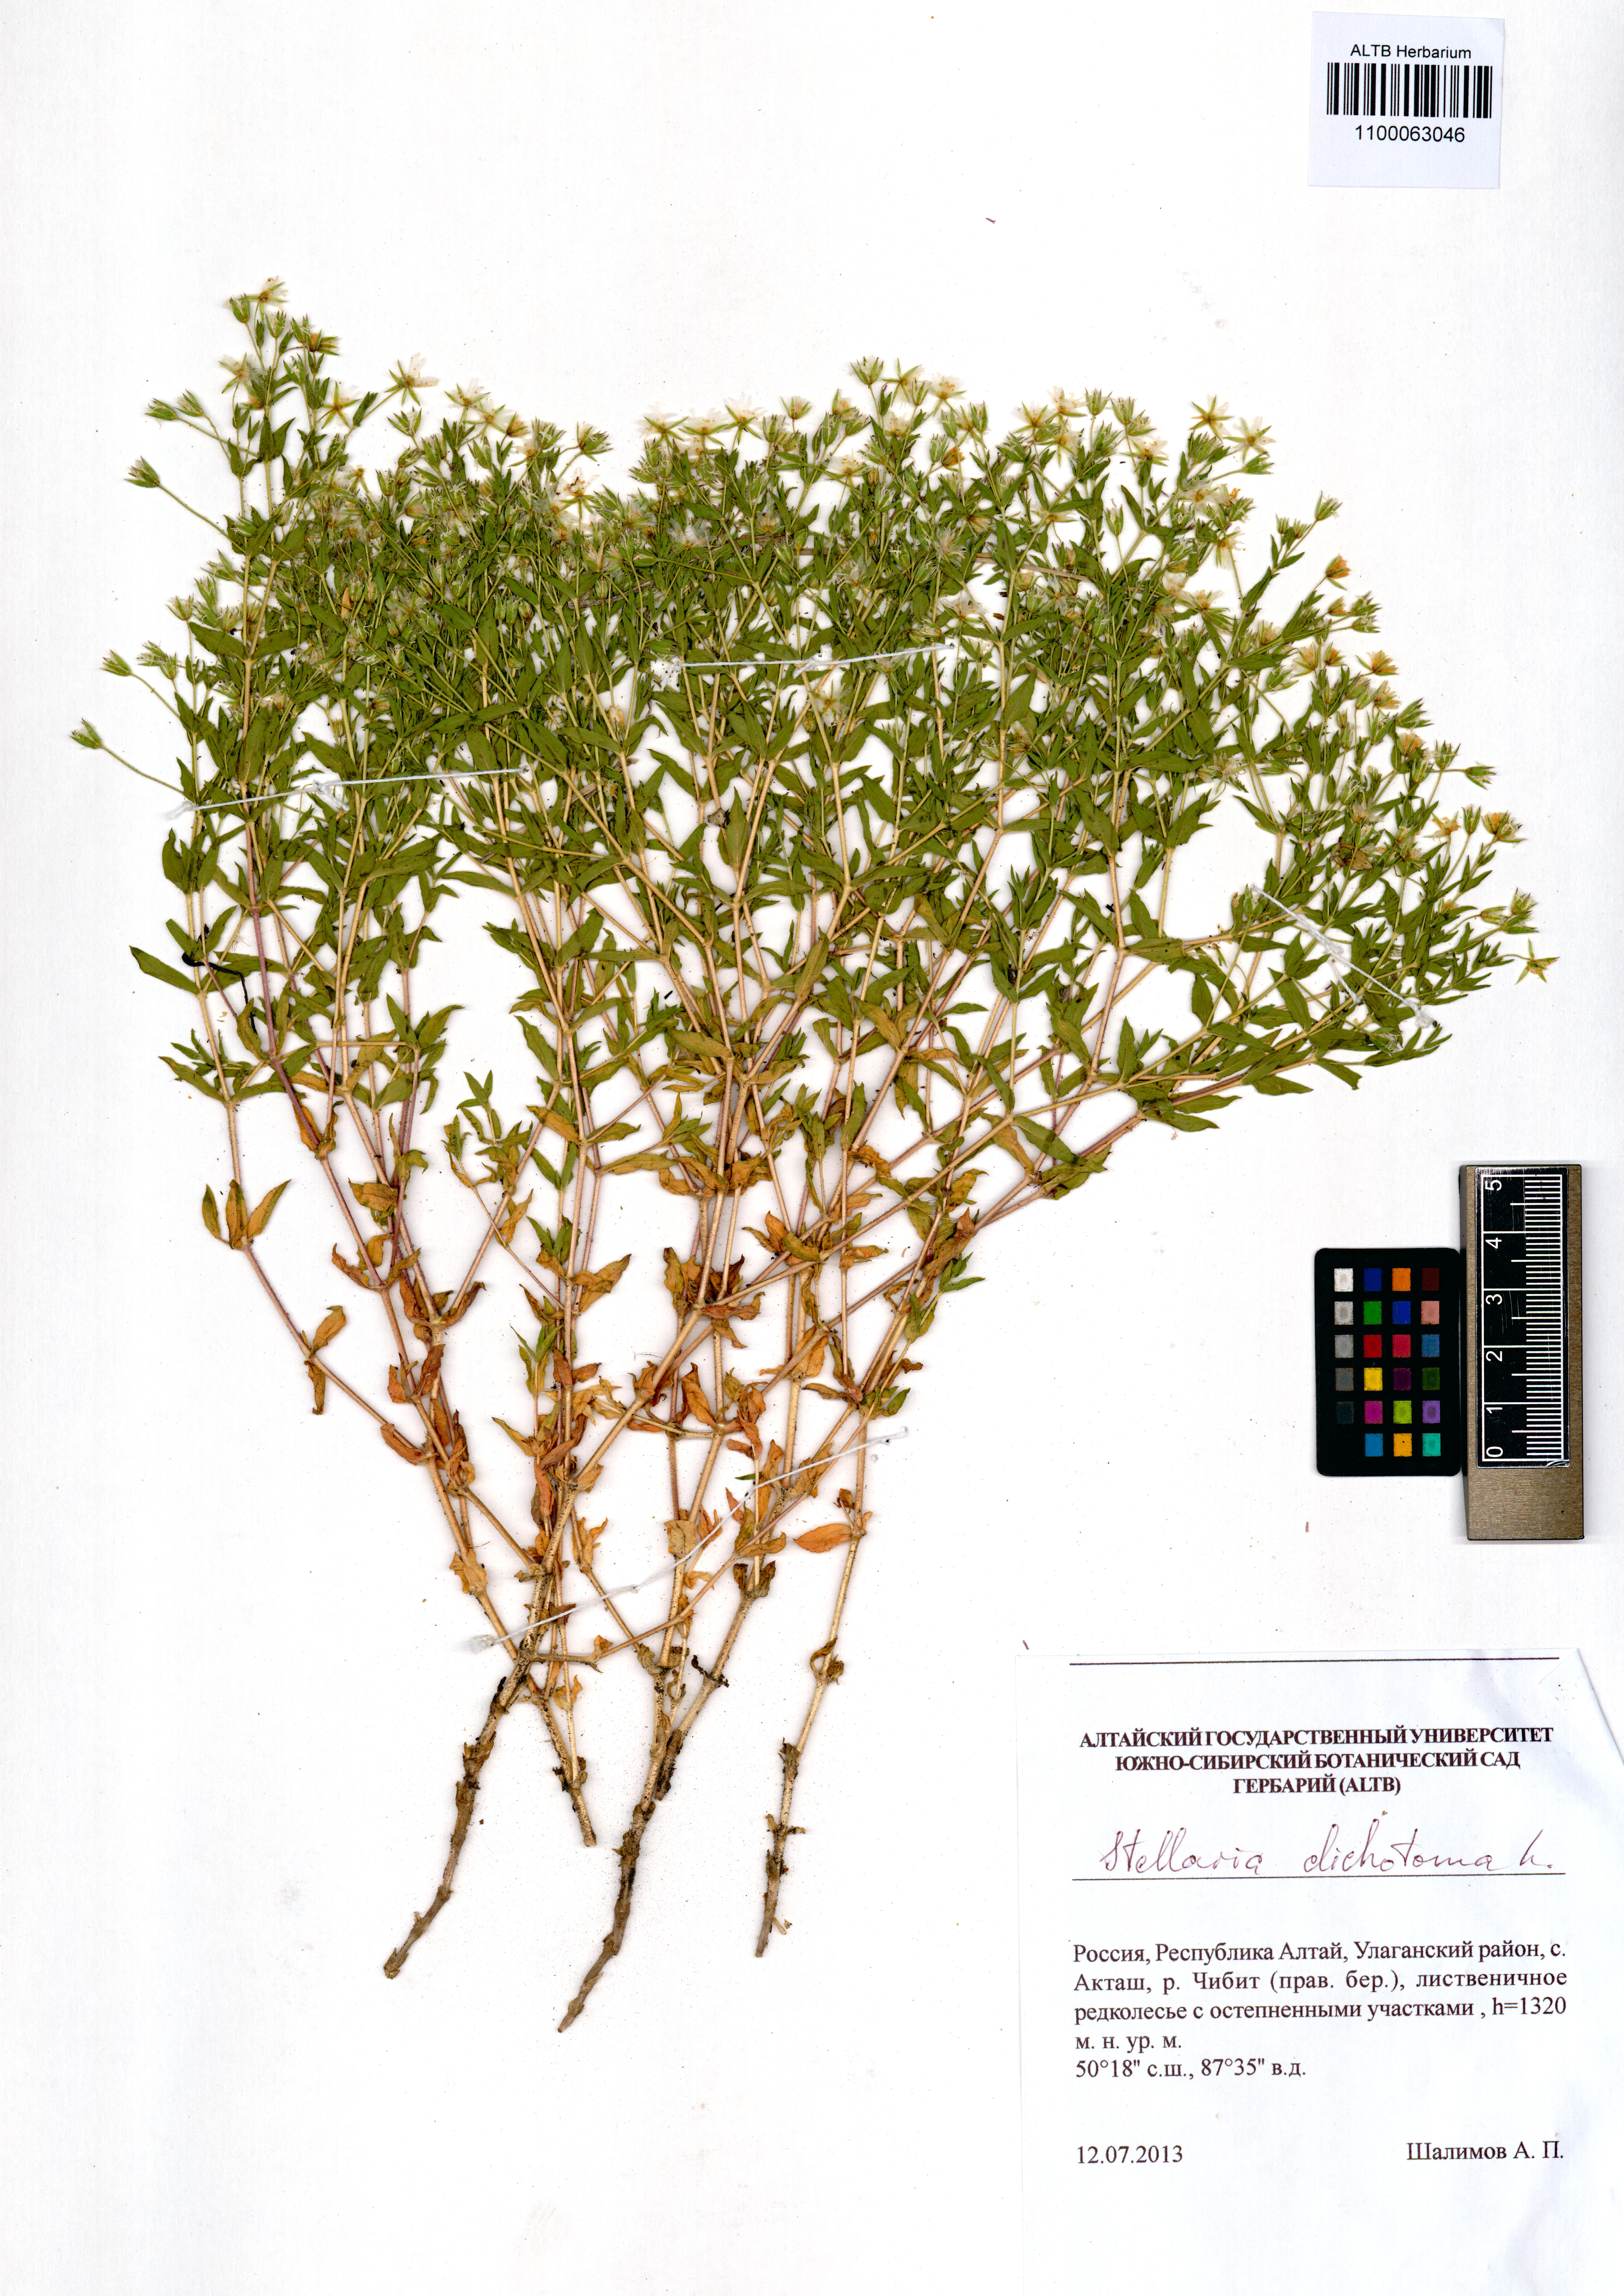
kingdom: Plantae
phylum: Tracheophyta
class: Magnoliopsida
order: Caryophyllales
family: Caryophyllaceae
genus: Mesostemma
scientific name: Mesostemma dichotomum
